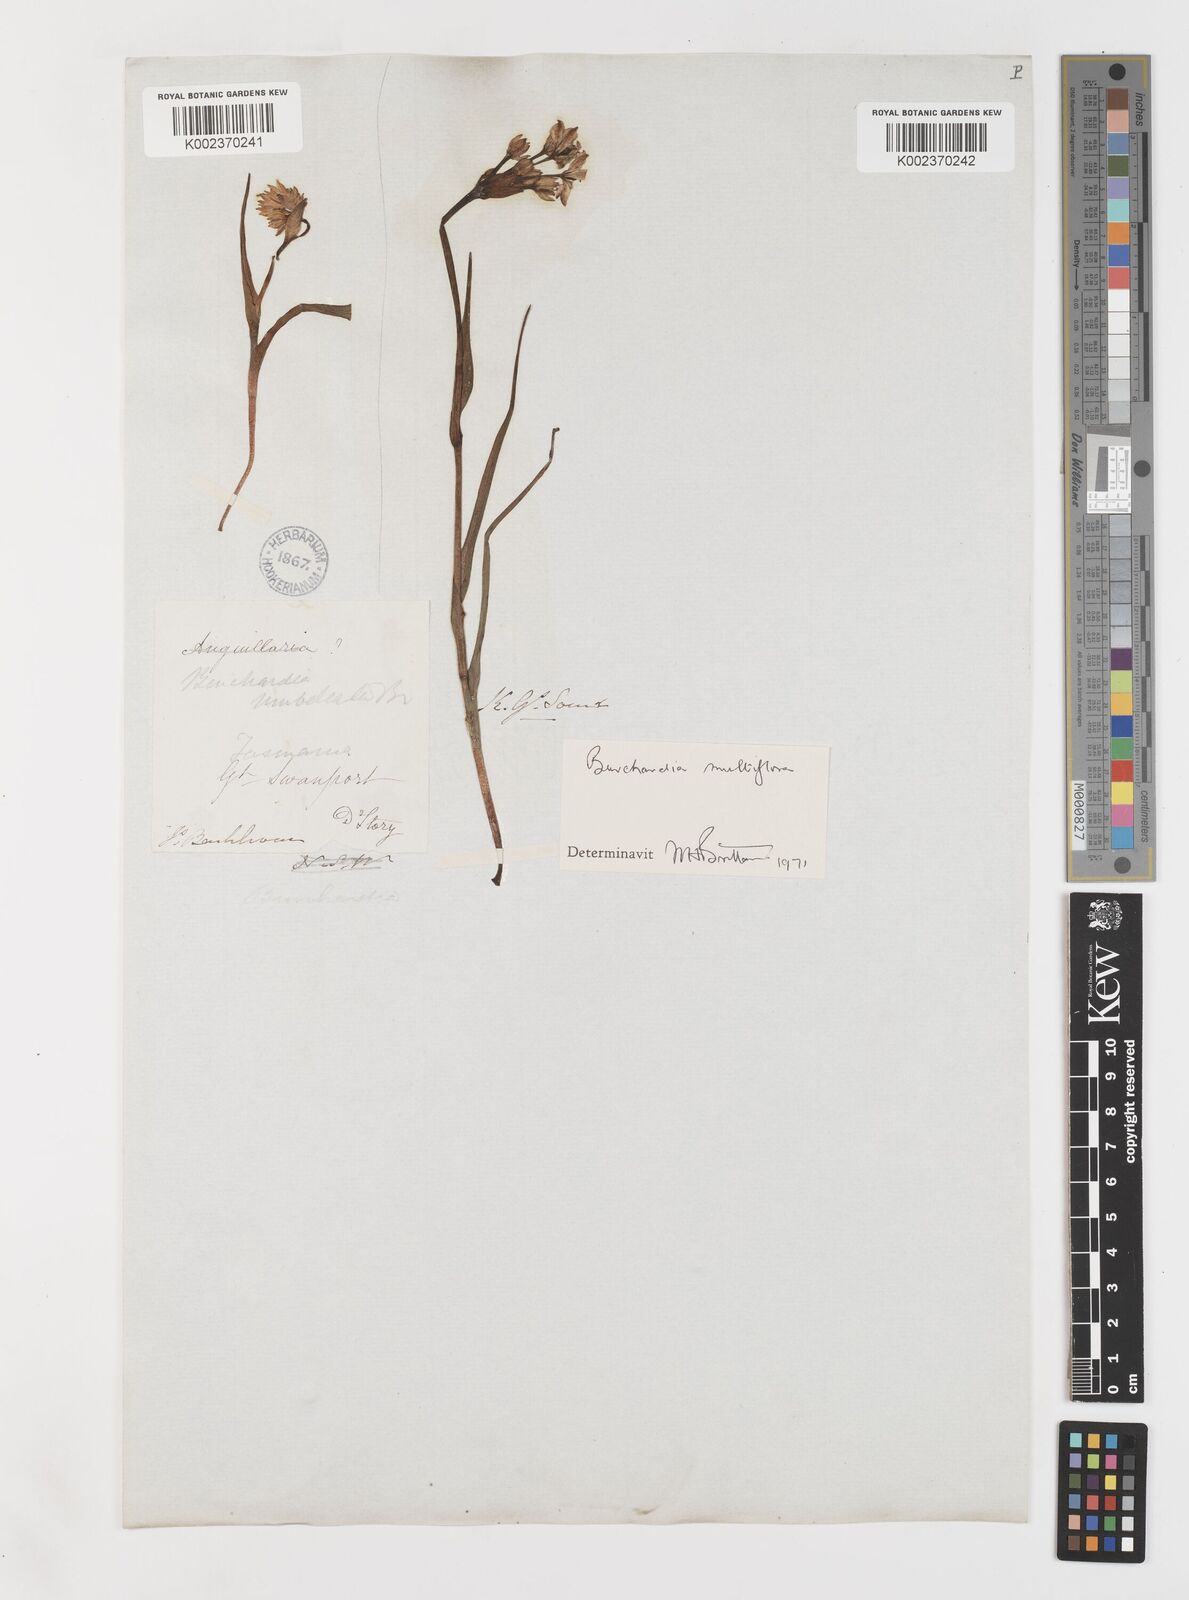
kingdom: Plantae
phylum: Tracheophyta
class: Liliopsida
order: Liliales
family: Colchicaceae
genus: Burchardia
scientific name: Burchardia multiflora
